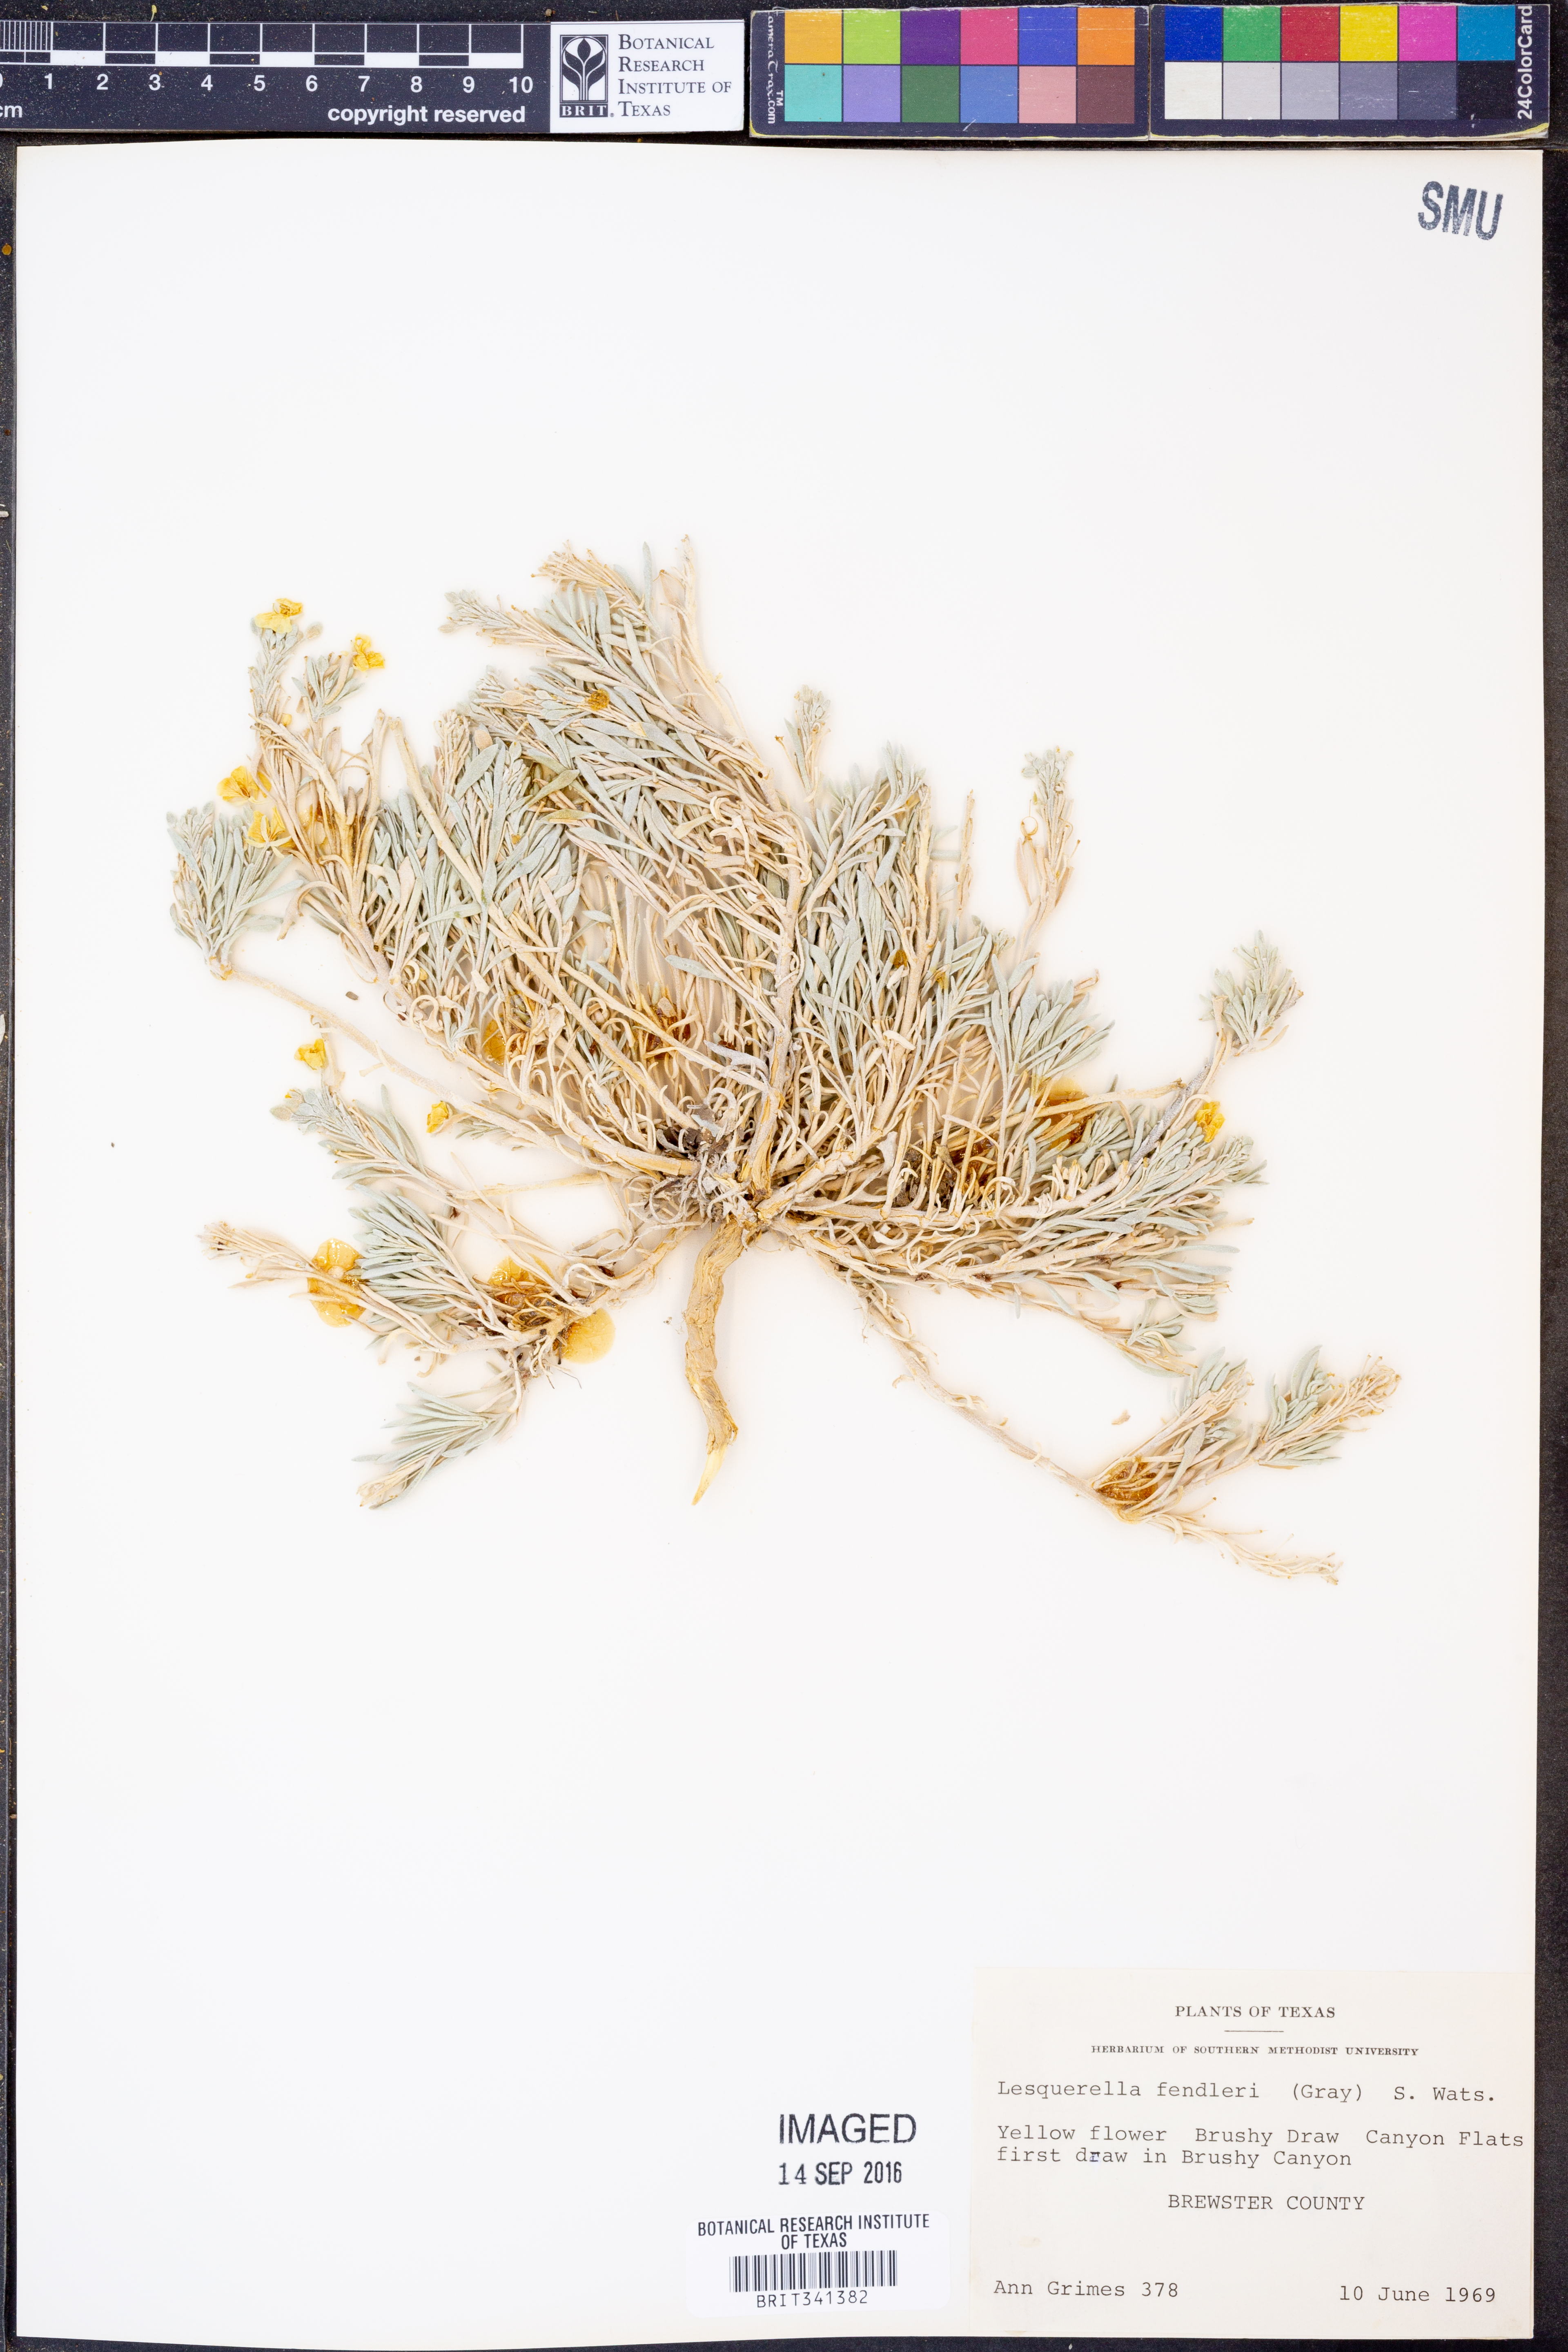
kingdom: Plantae
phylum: Tracheophyta
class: Magnoliopsida
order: Brassicales
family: Brassicaceae
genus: Physaria
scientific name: Physaria fendleri
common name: Fendler's bladderpod
